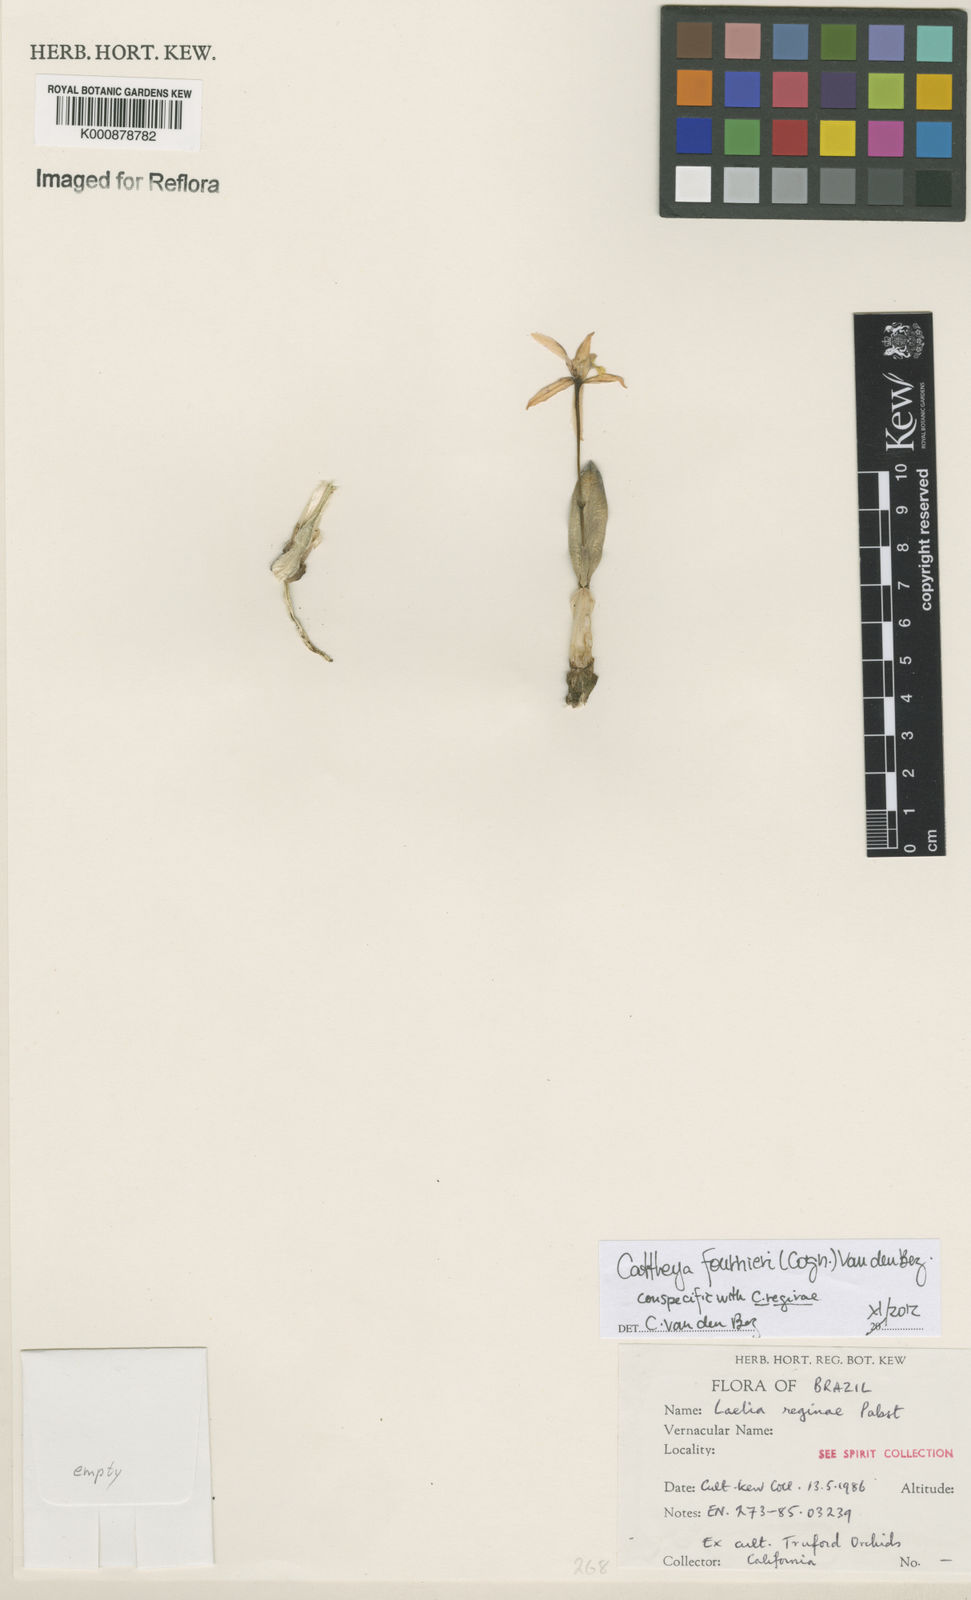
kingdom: Plantae
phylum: Tracheophyta
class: Liliopsida
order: Asparagales
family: Orchidaceae
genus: Cattleya
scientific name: Cattleya fournieri
